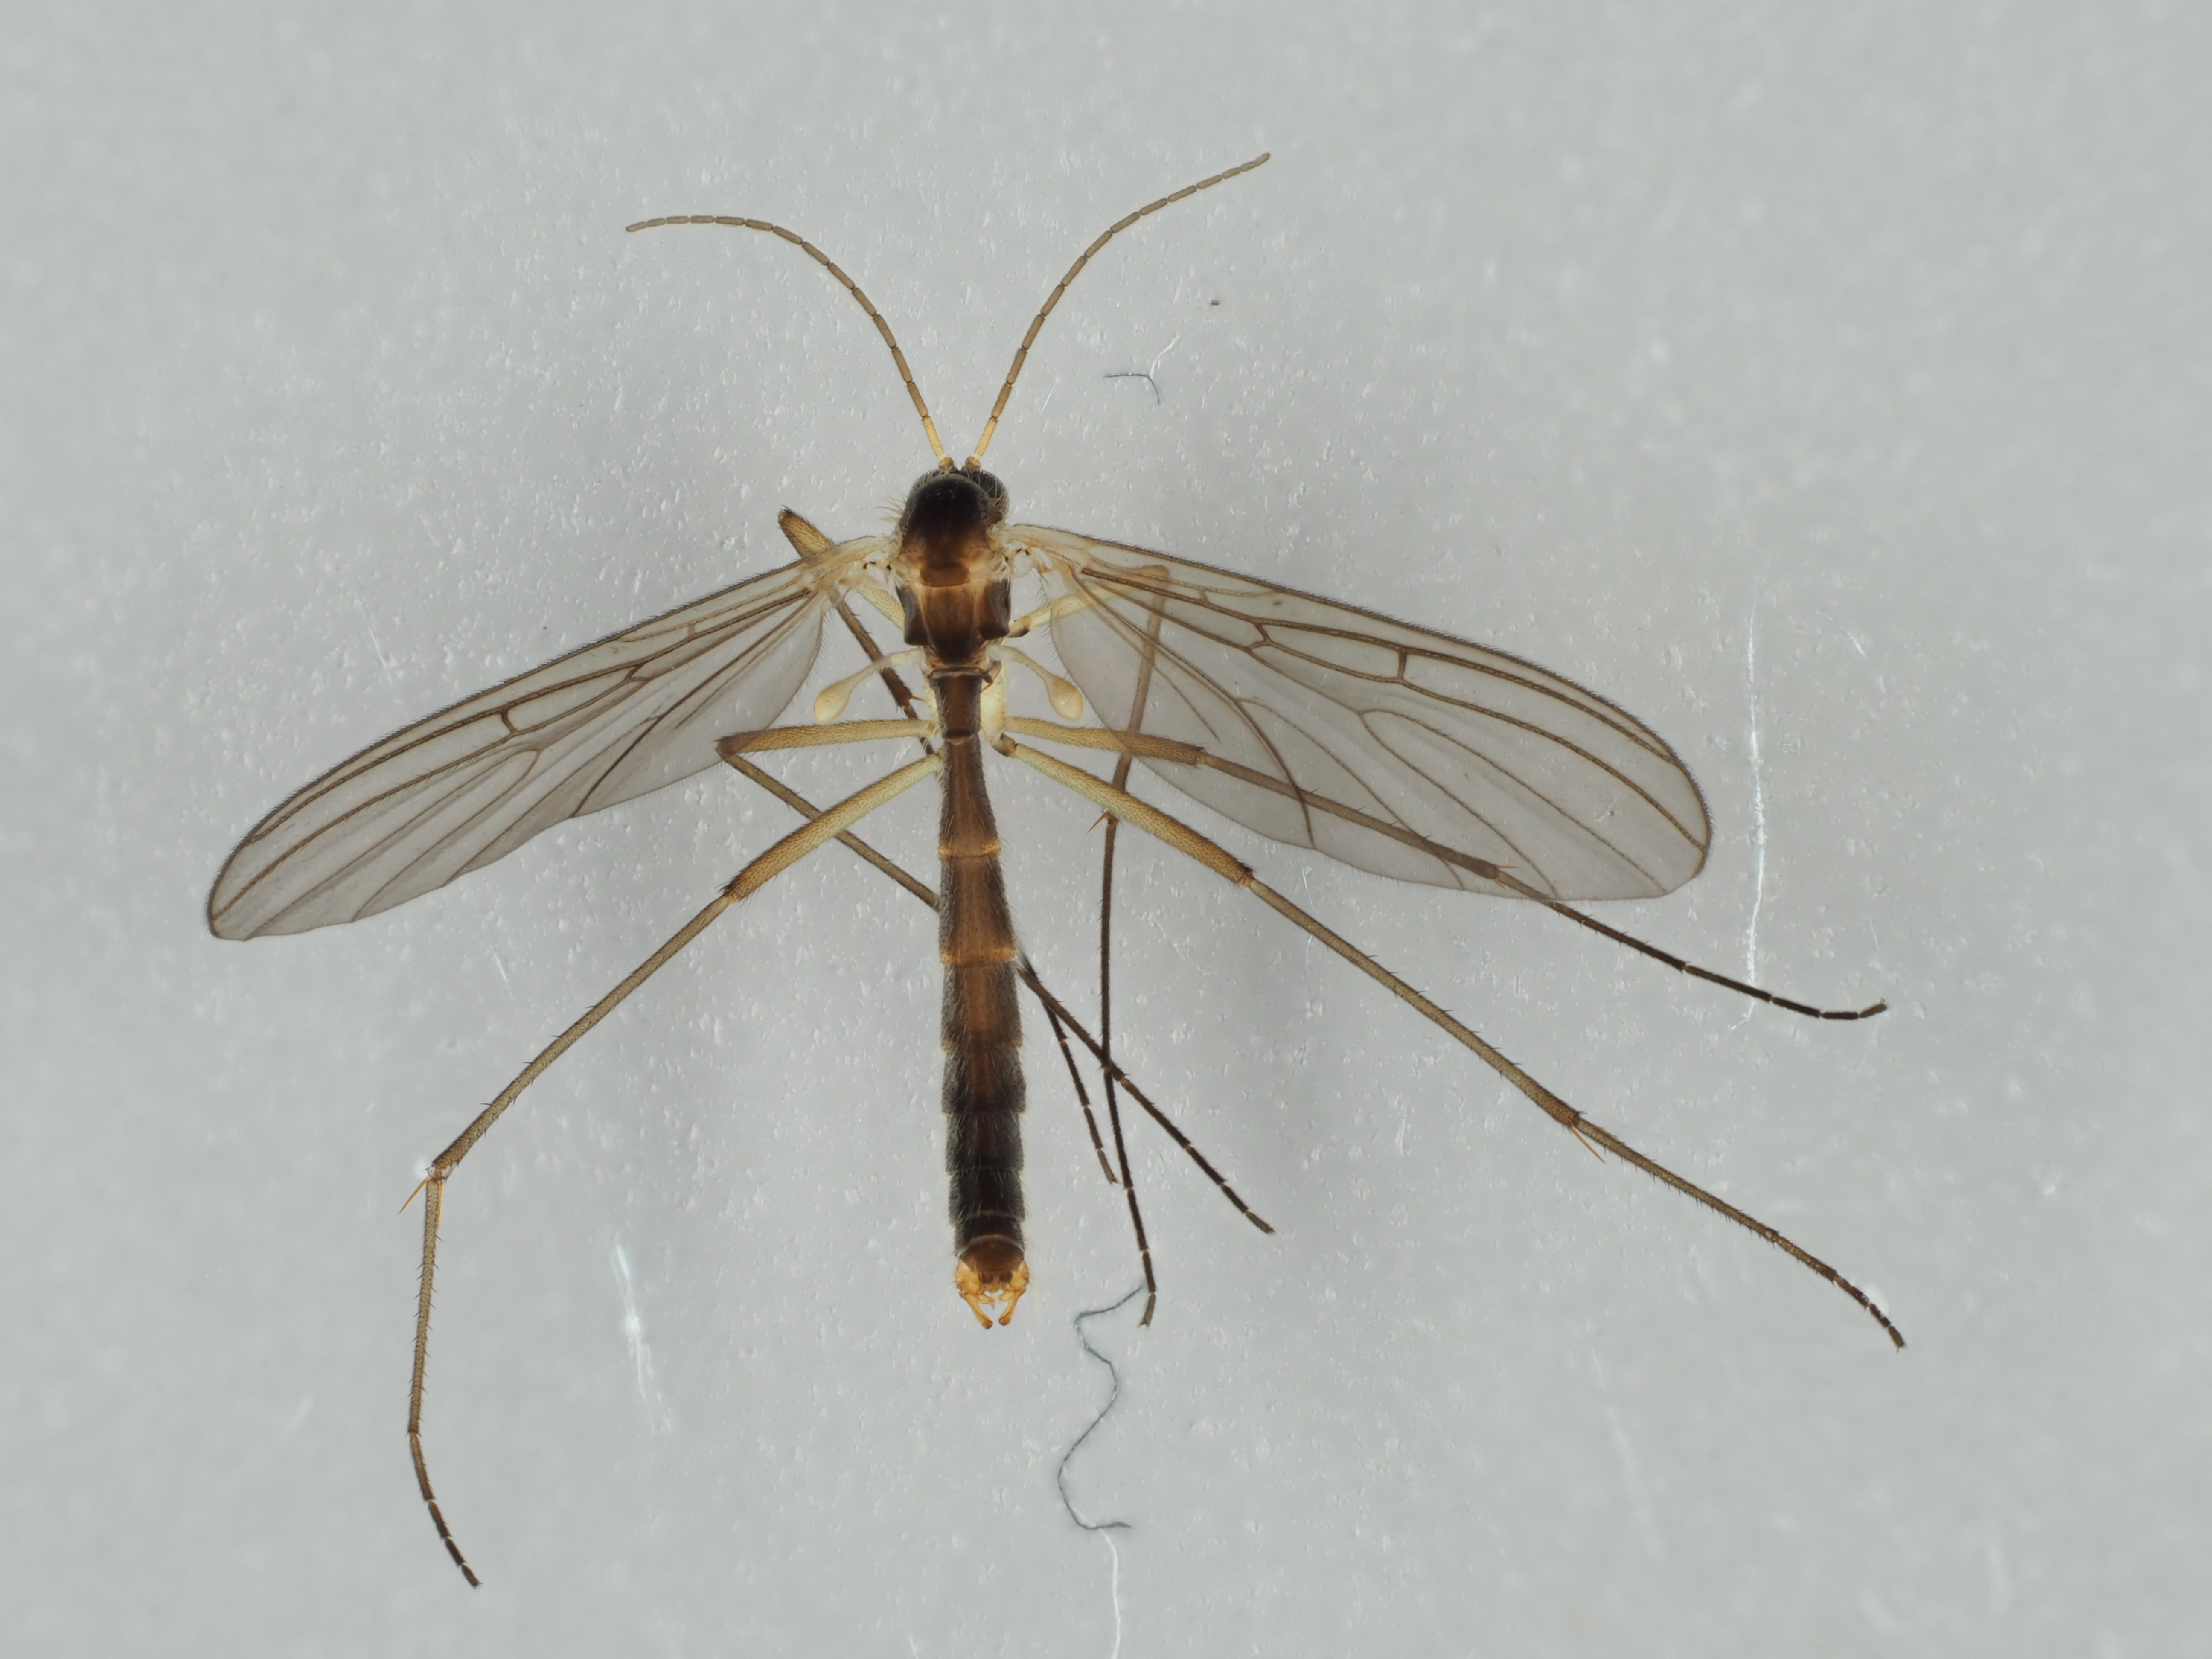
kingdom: Animalia
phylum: Arthropoda
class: Insecta
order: Diptera
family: Mycetophilidae
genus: Paratinia
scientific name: Paratinia difficilis
